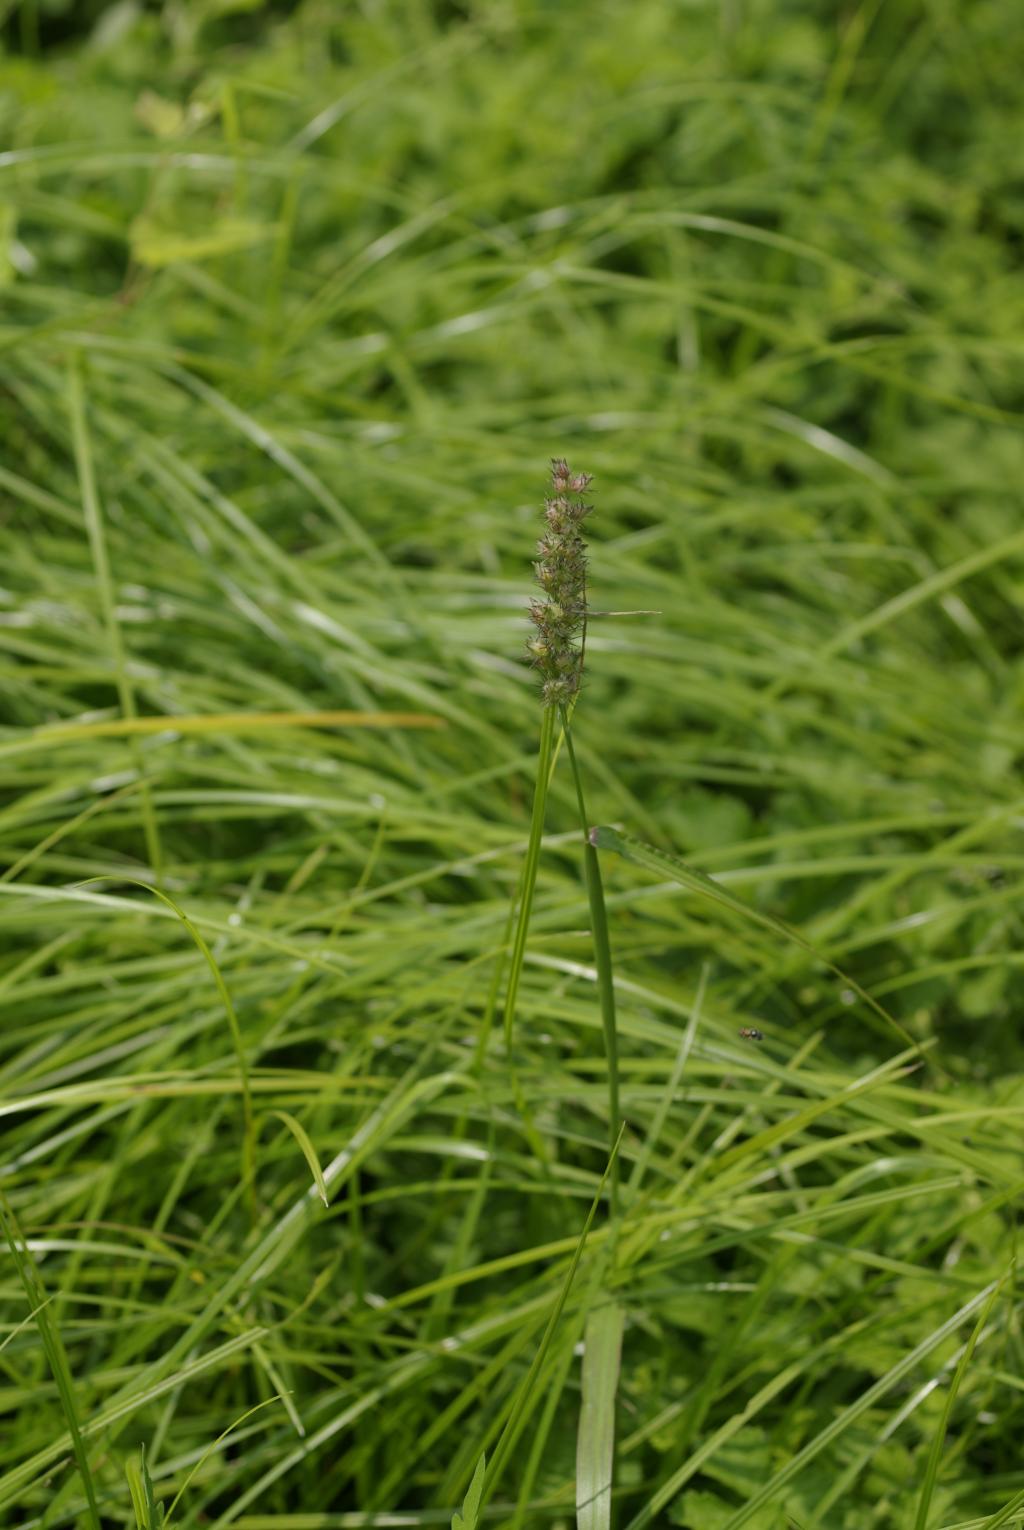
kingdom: Plantae
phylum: Tracheophyta
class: Liliopsida
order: Poales
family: Poaceae
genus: Cenchrus
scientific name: Cenchrus echinatus
